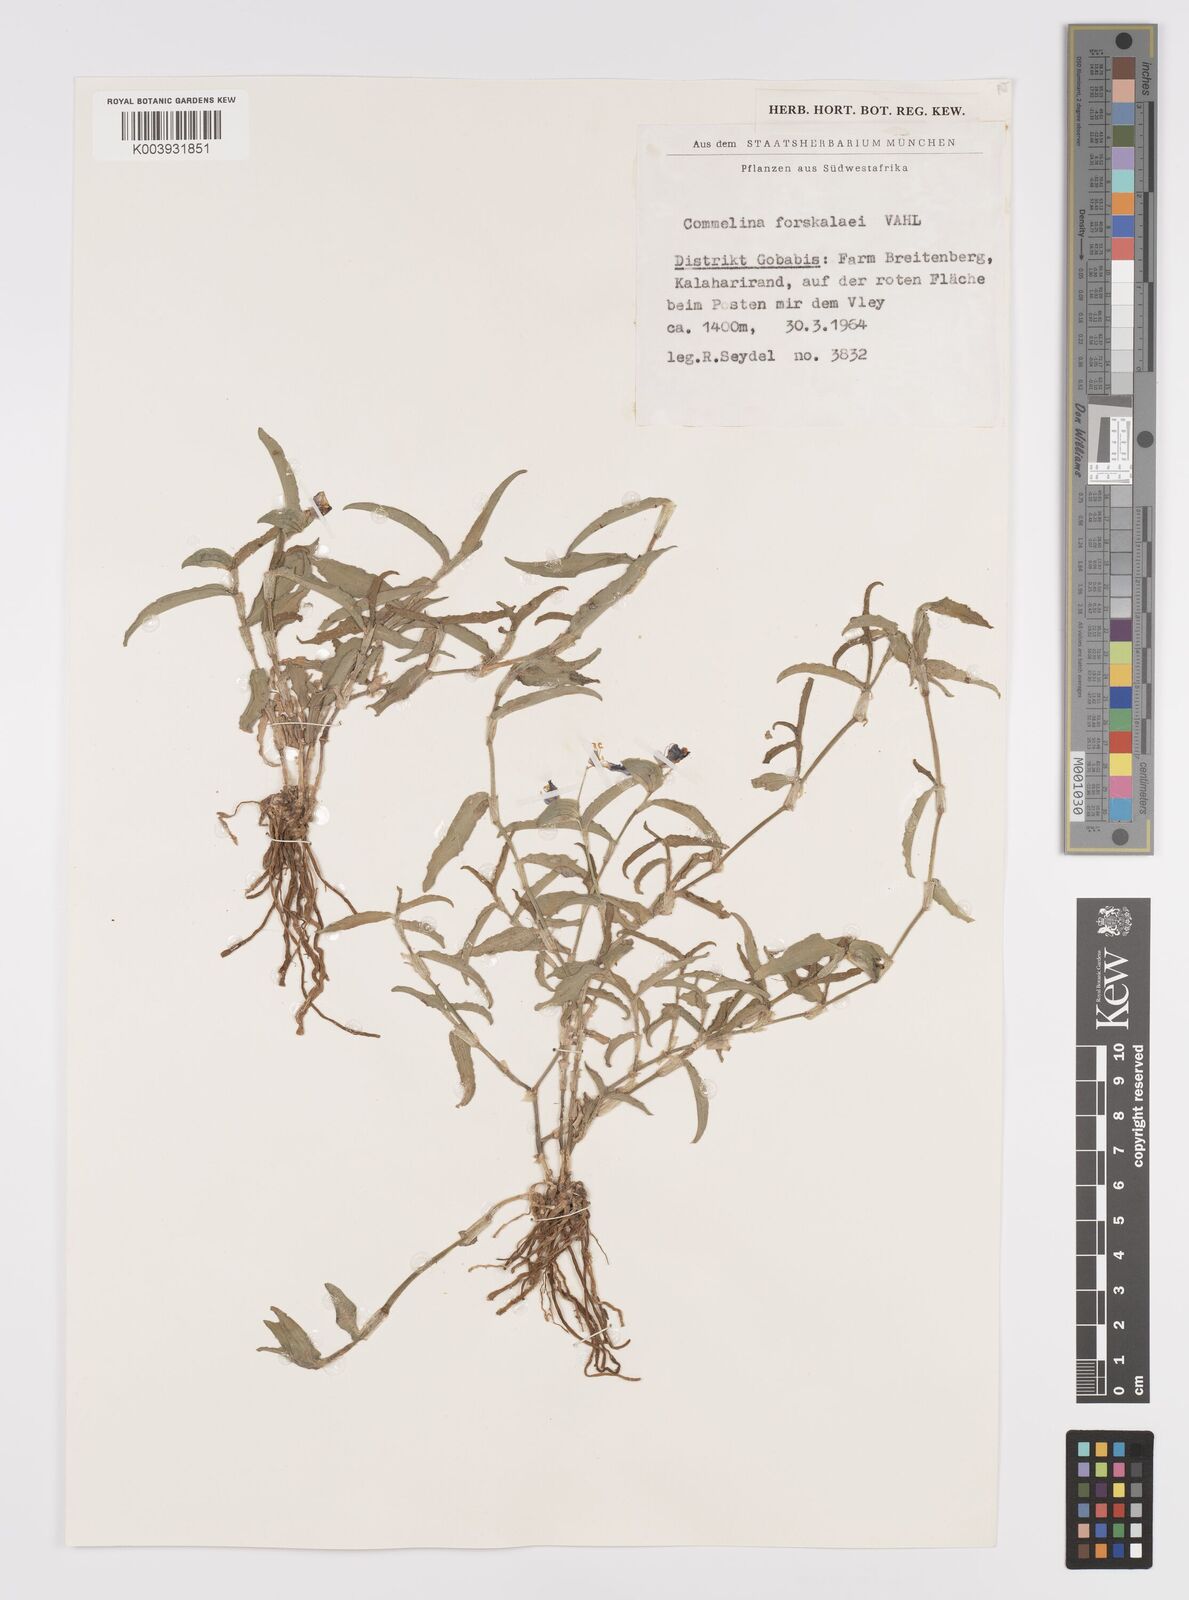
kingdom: Plantae
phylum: Tracheophyta
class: Liliopsida
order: Commelinales
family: Commelinaceae
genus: Commelina
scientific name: Commelina forskaolii
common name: Rat's ear
